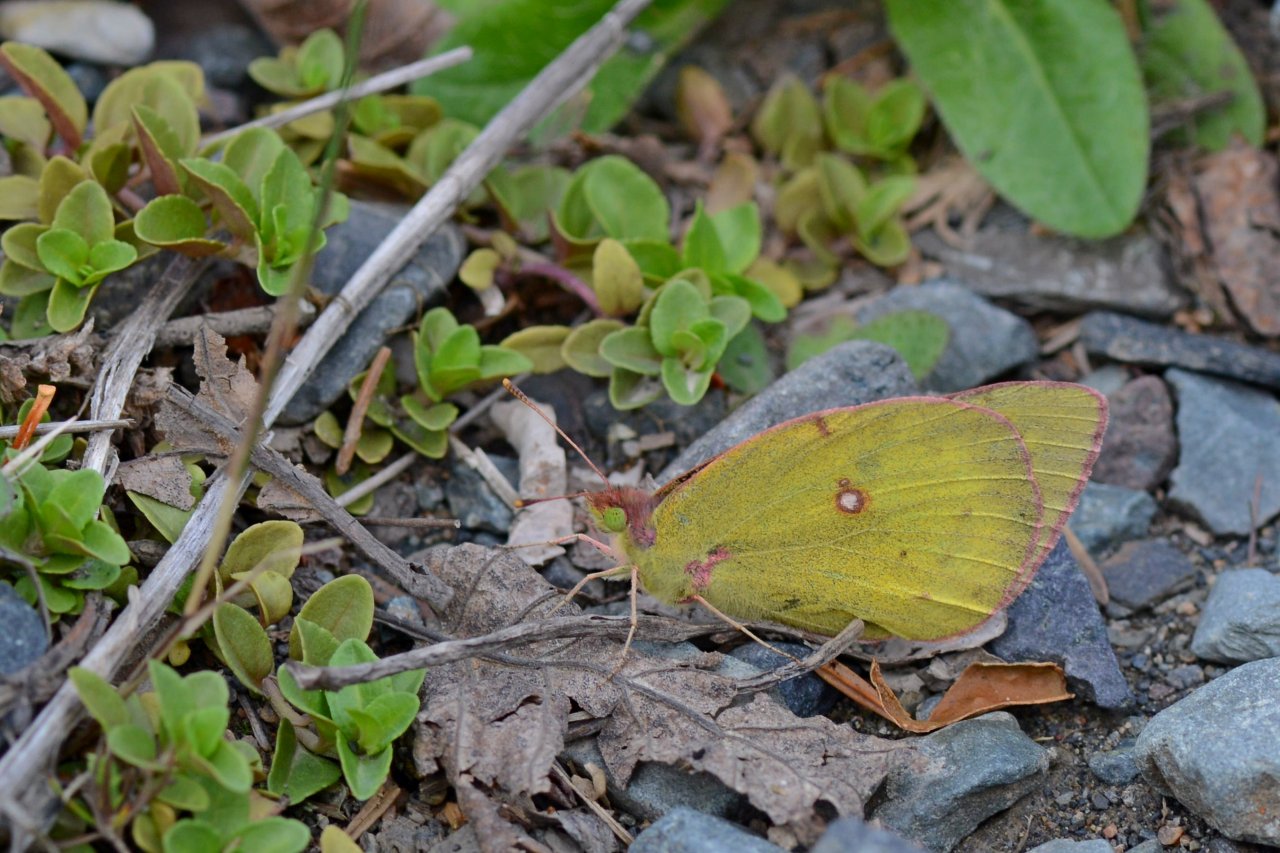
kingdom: Animalia
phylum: Arthropoda
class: Insecta
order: Lepidoptera
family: Pieridae
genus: Colias
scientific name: Colias philodice
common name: Clouded Sulphur
